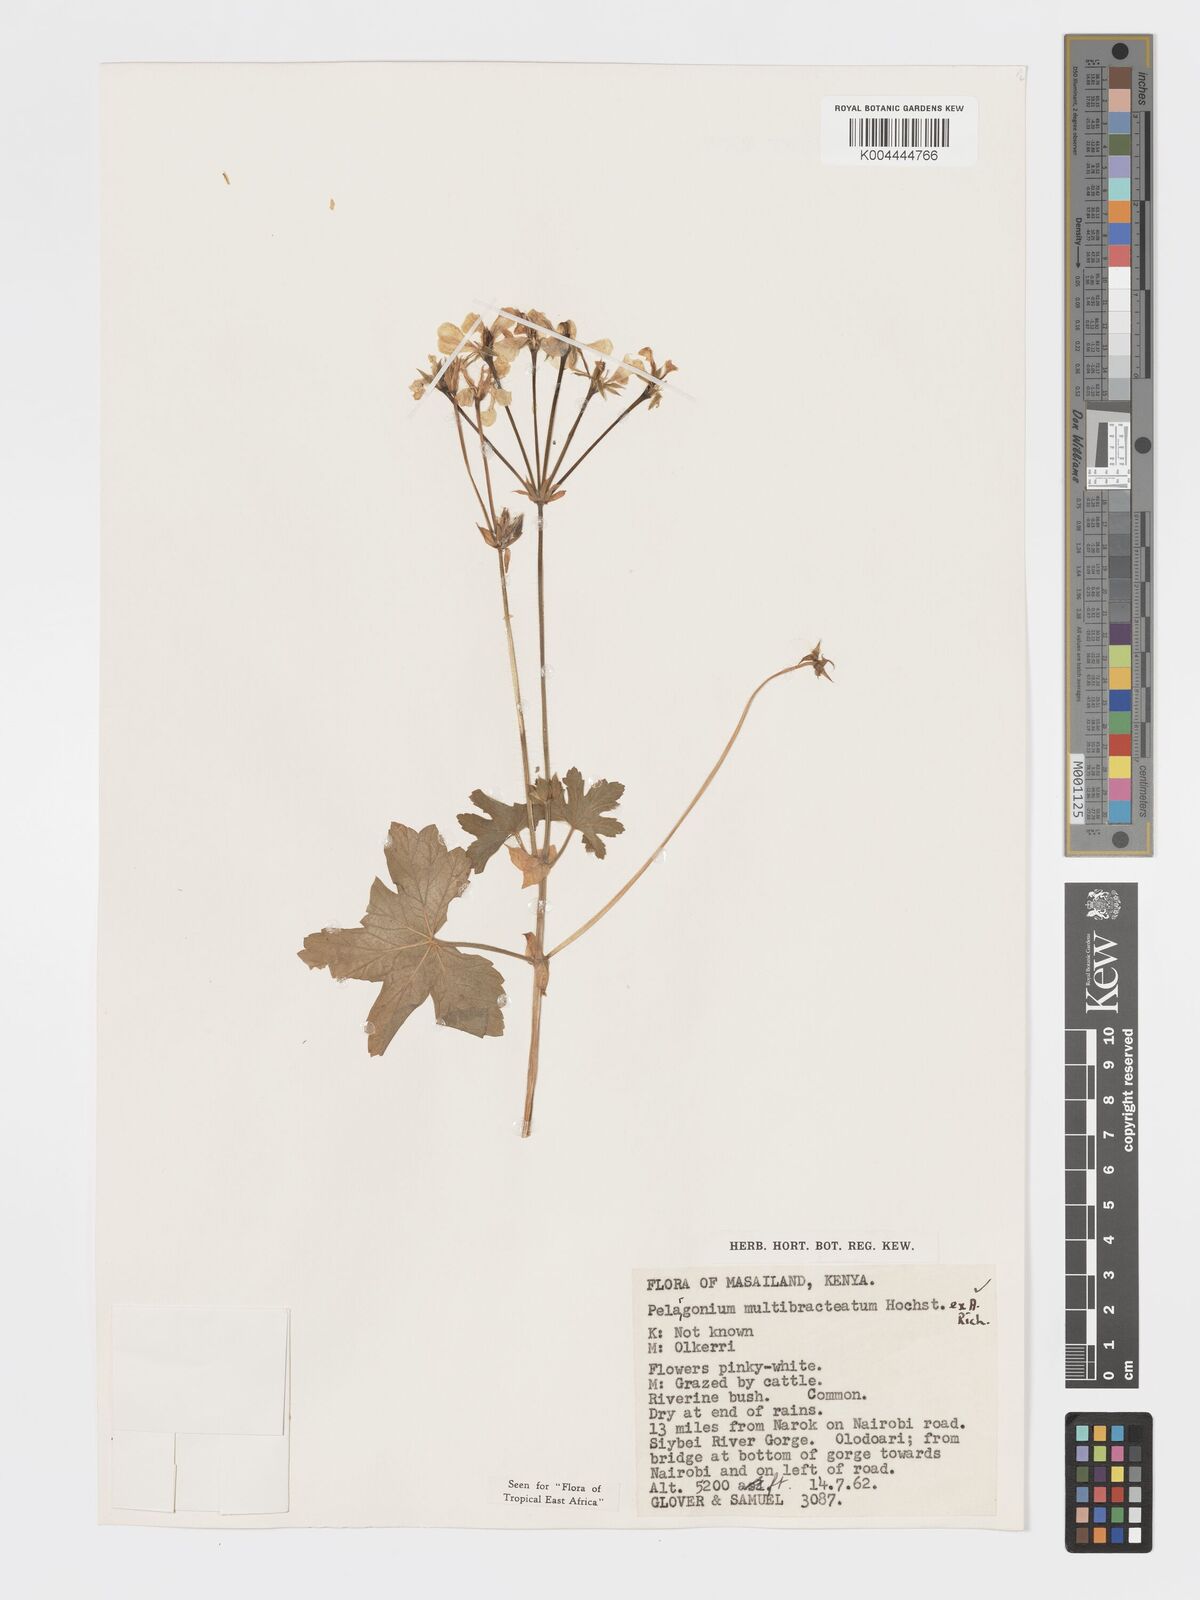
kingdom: Plantae
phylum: Tracheophyta
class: Magnoliopsida
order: Geraniales
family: Geraniaceae
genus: Pelargonium
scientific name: Pelargonium alchemilloides
